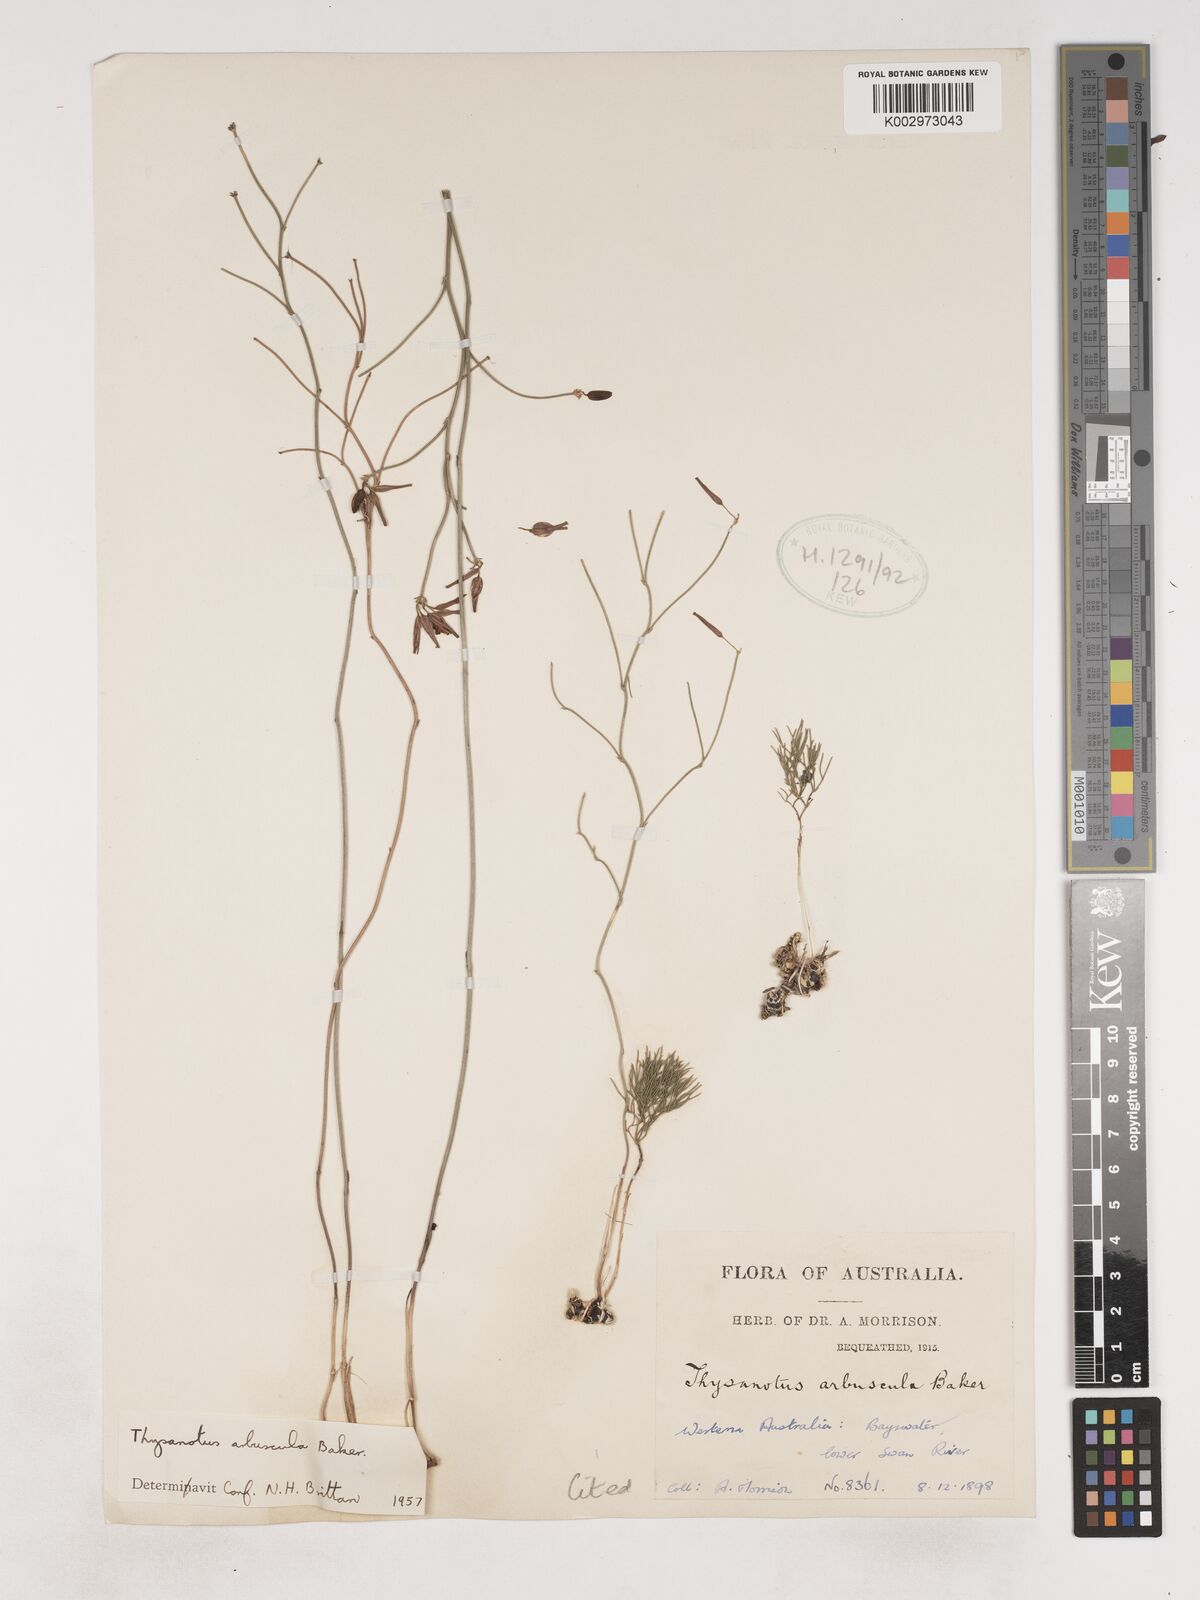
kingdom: Plantae
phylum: Tracheophyta
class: Liliopsida
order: Asparagales
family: Asparagaceae
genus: Thysanotus
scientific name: Thysanotus arbuscula
